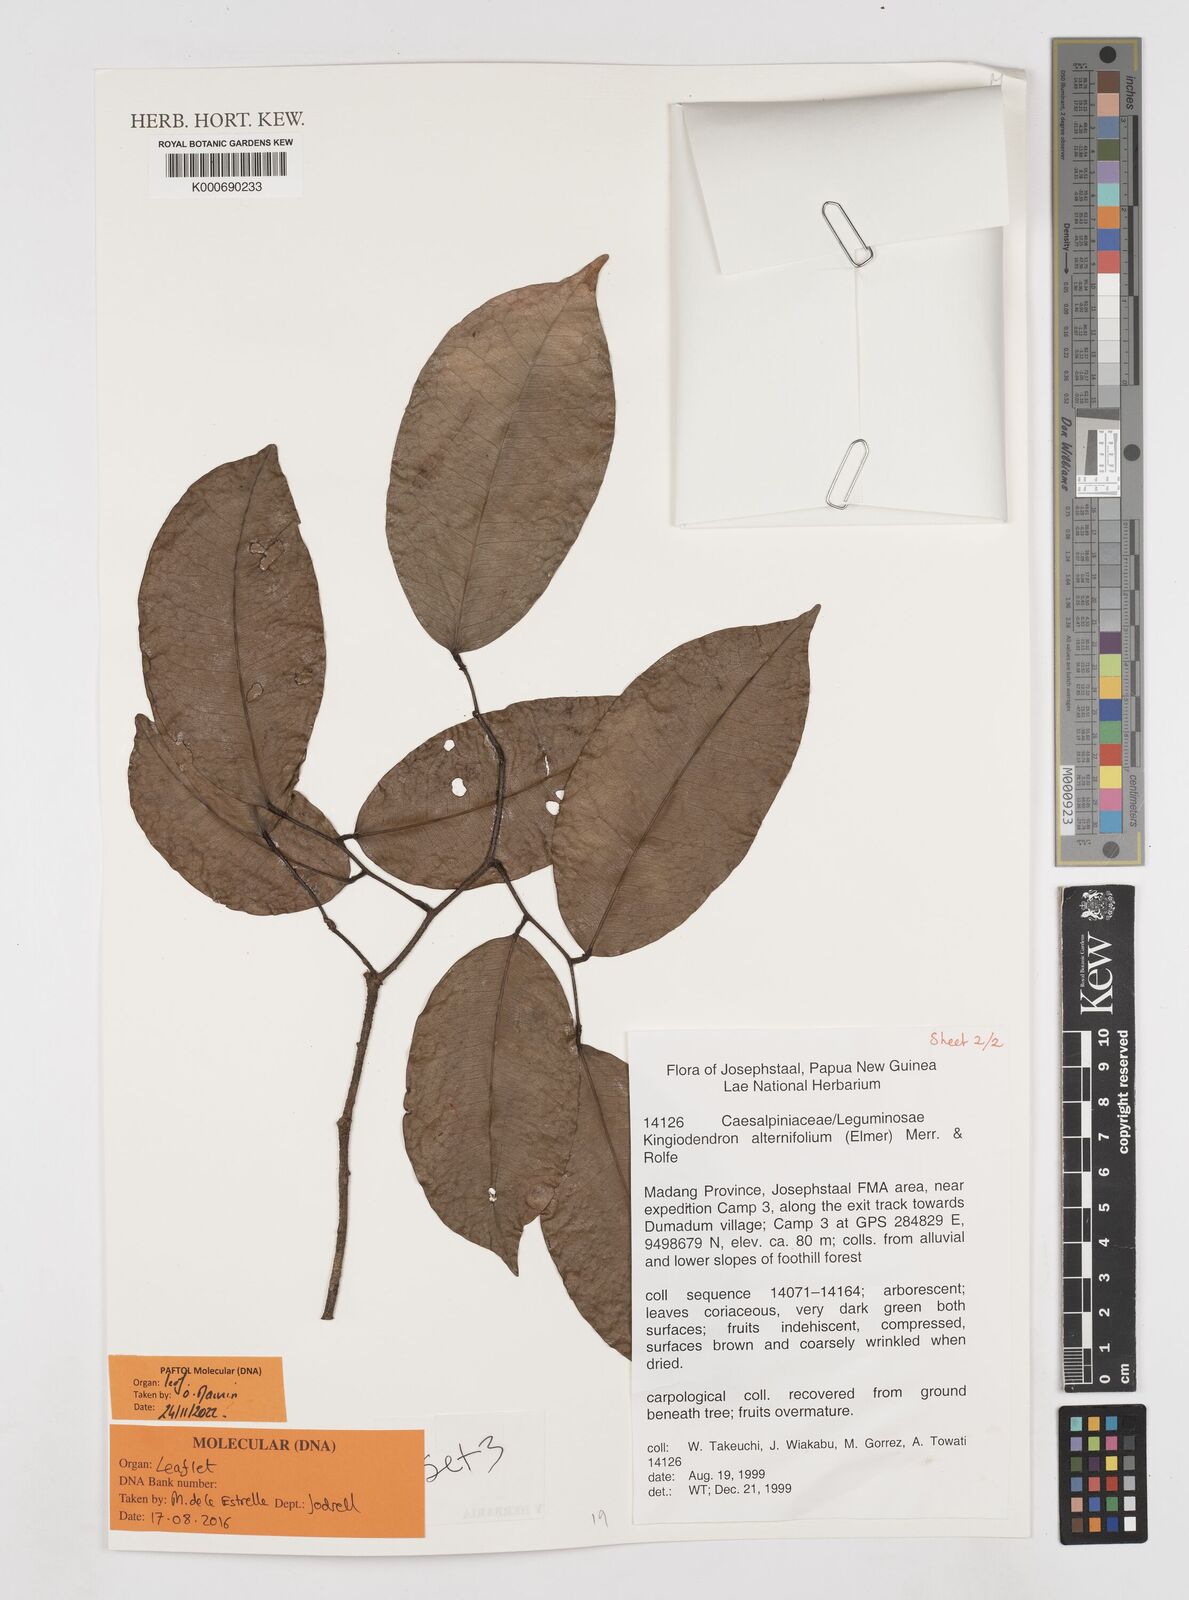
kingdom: Plantae
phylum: Tracheophyta
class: Magnoliopsida
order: Fabales
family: Fabaceae
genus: Prioria
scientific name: Prioria alternifolia
